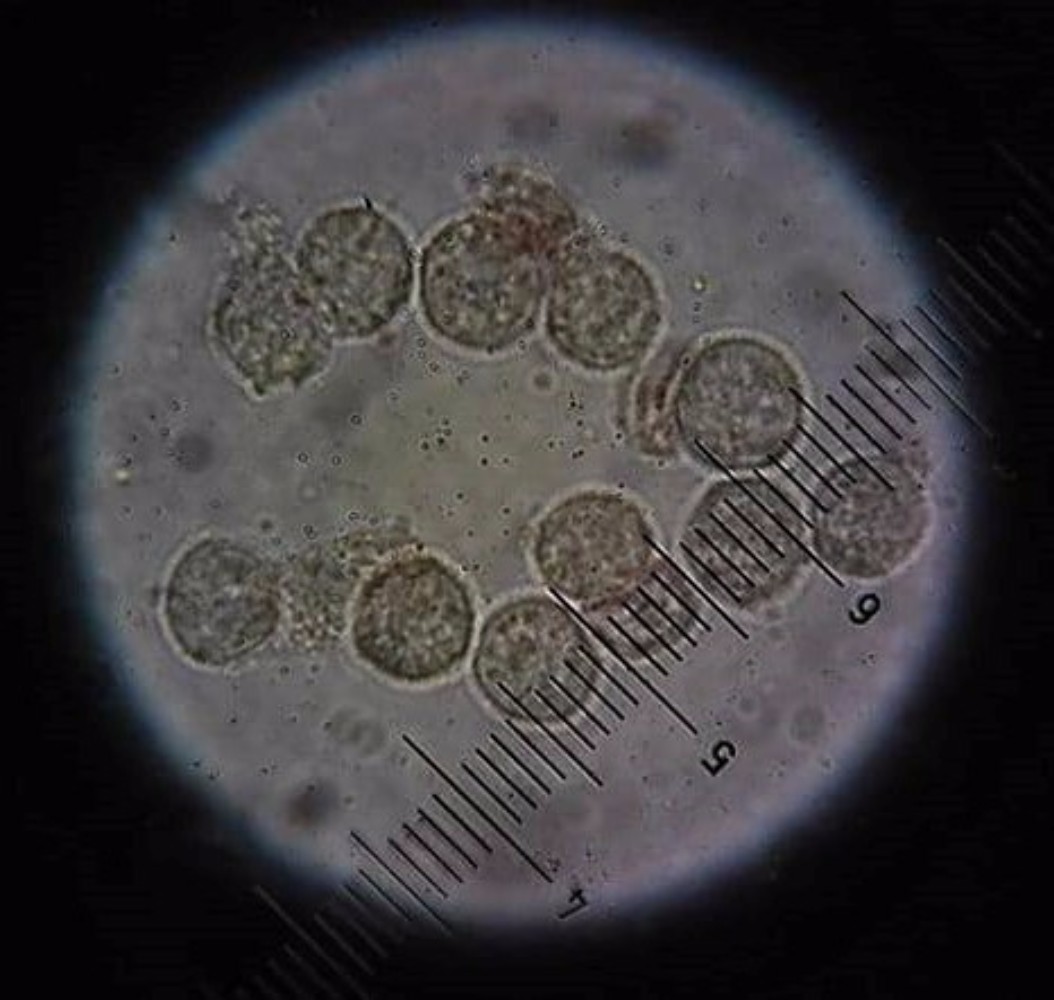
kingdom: Protozoa
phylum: Mycetozoa
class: Myxomycetes
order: Physarales
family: Physaraceae
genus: Physarum
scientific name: Physarum
